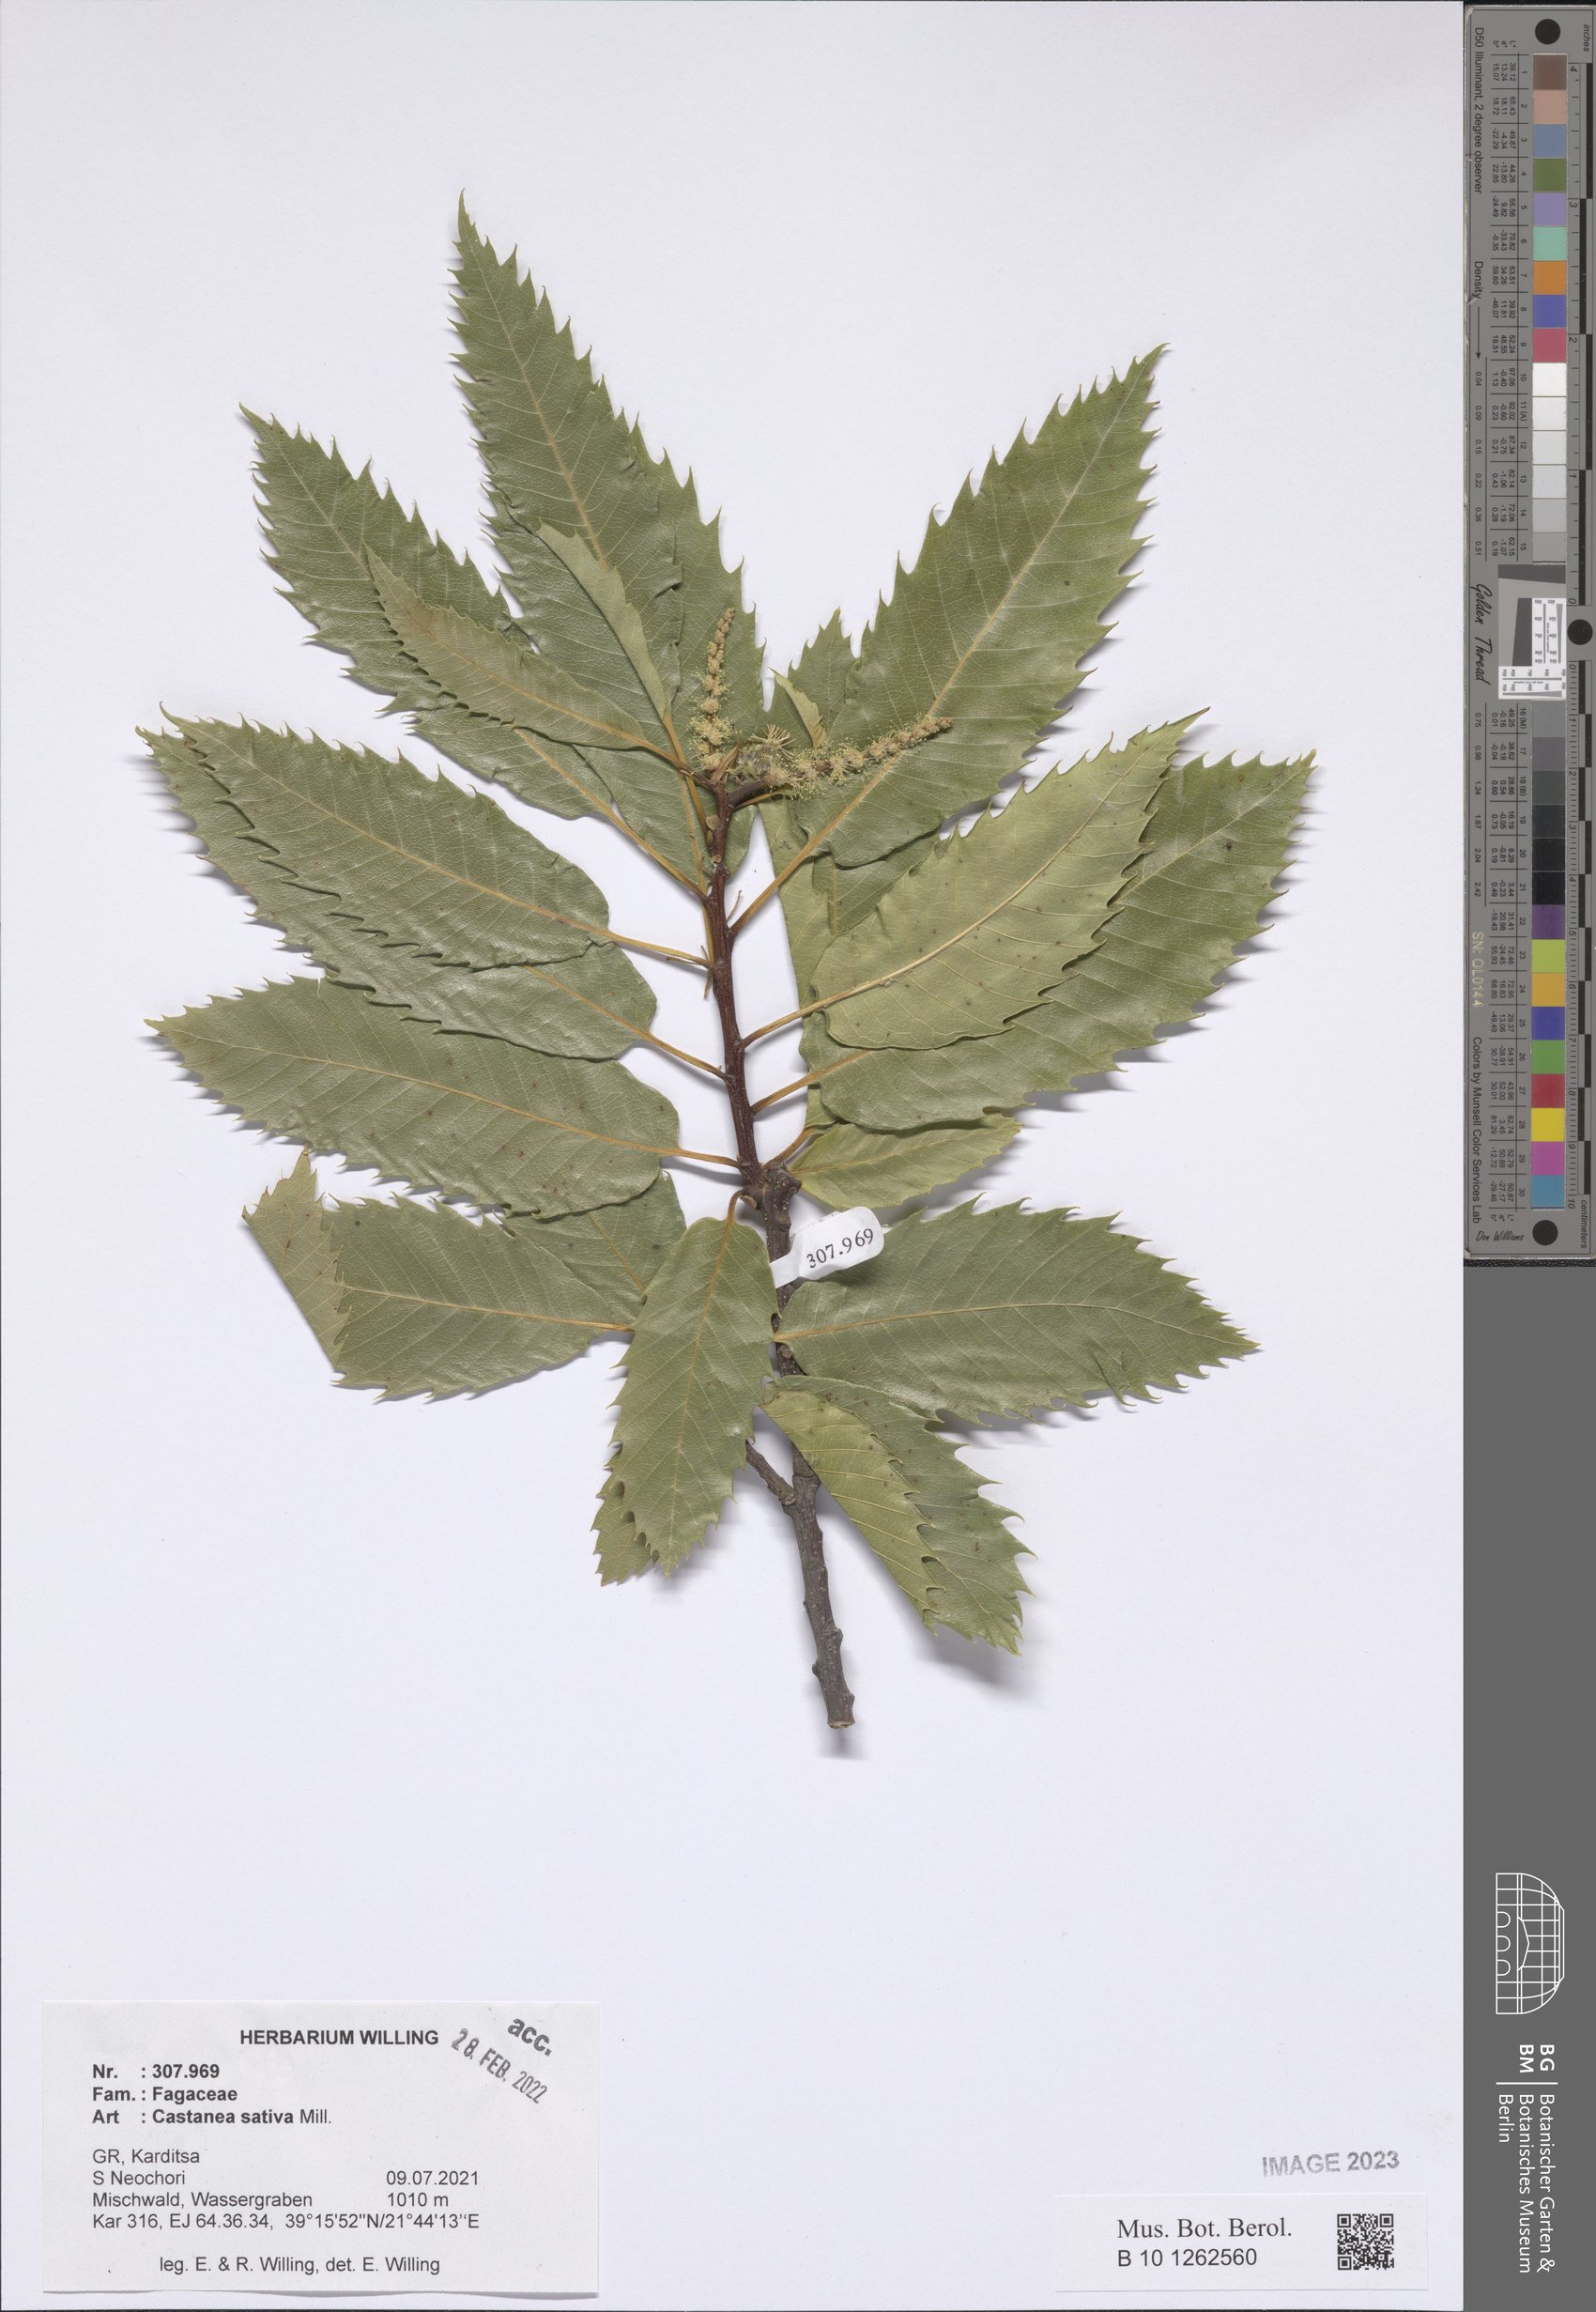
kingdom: Plantae
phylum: Tracheophyta
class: Magnoliopsida
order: Fagales
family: Fagaceae
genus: Castanea
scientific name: Castanea sativa
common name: Sweet chestnut
